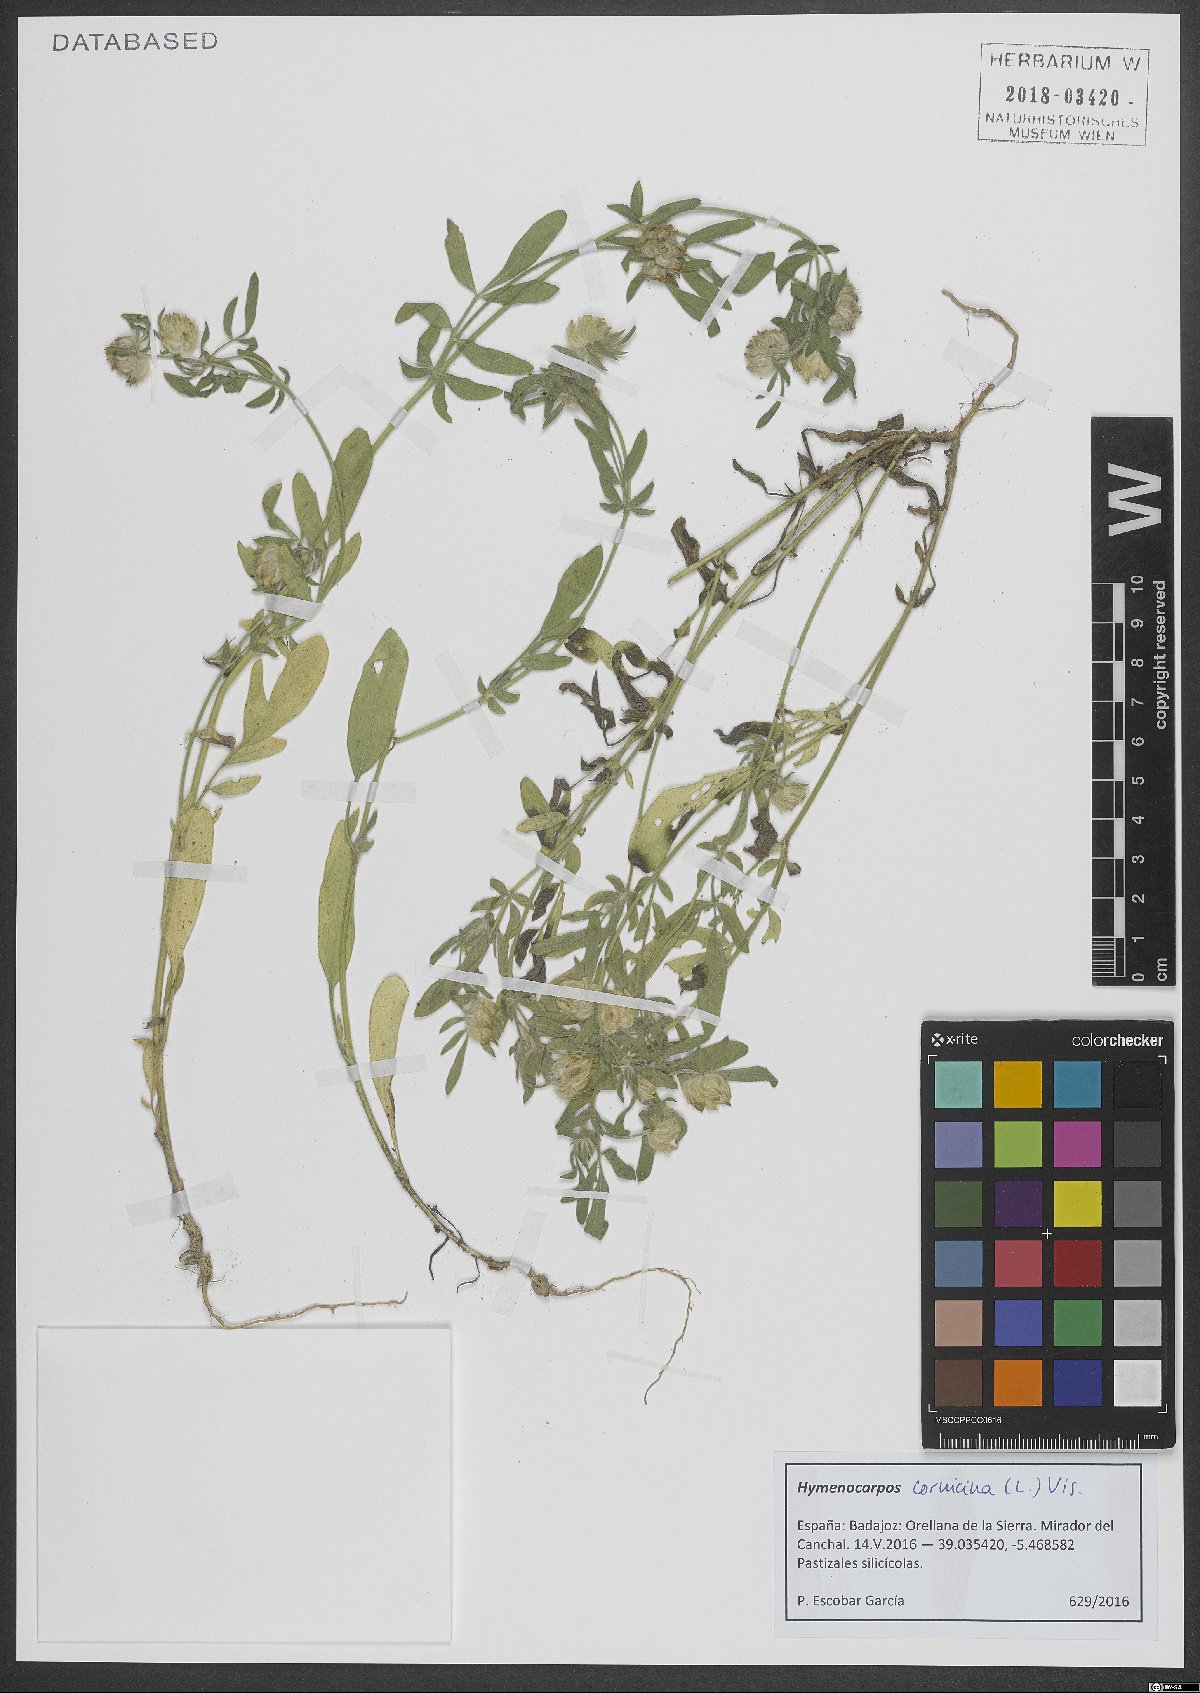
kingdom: Plantae
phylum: Tracheophyta
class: Magnoliopsida
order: Fabales
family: Fabaceae
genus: Anthyllis
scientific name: Anthyllis cornicina
